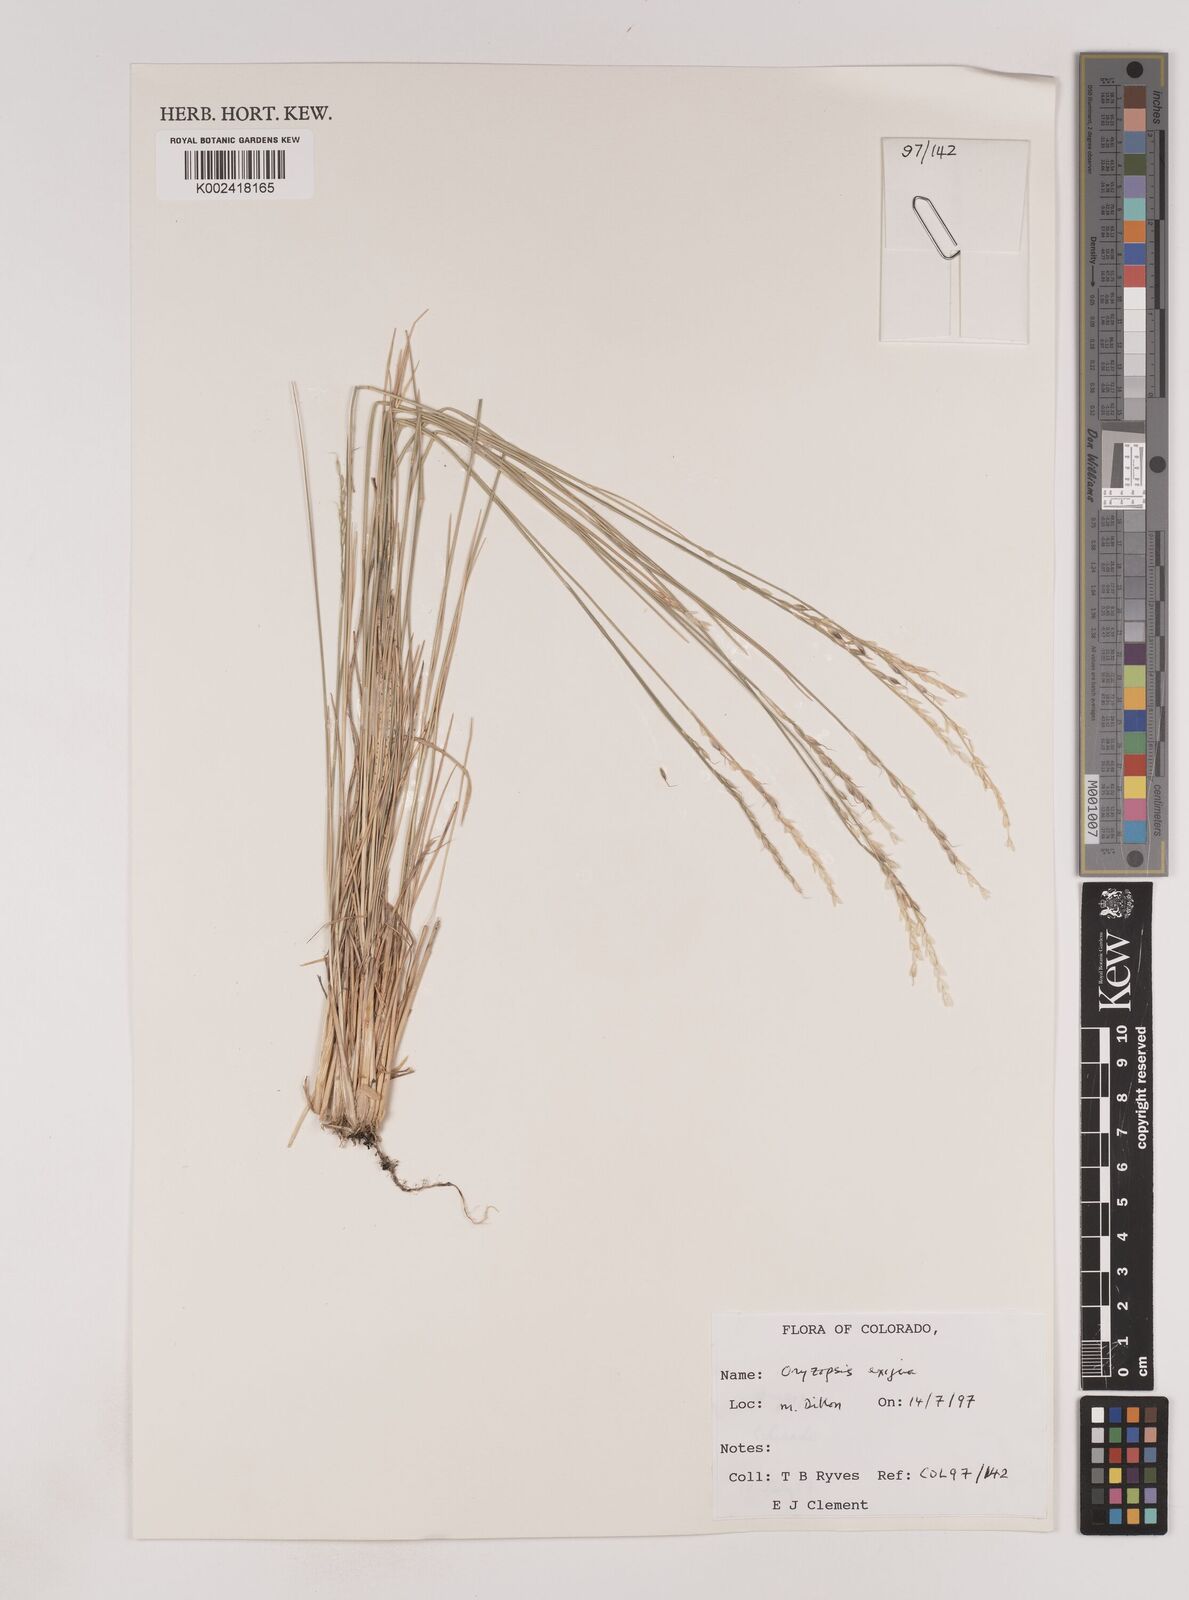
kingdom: Plantae
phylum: Tracheophyta
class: Liliopsida
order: Poales
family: Poaceae
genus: Piptatheropsis
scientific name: Piptatheropsis exigua
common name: Little mountain ricegrass
